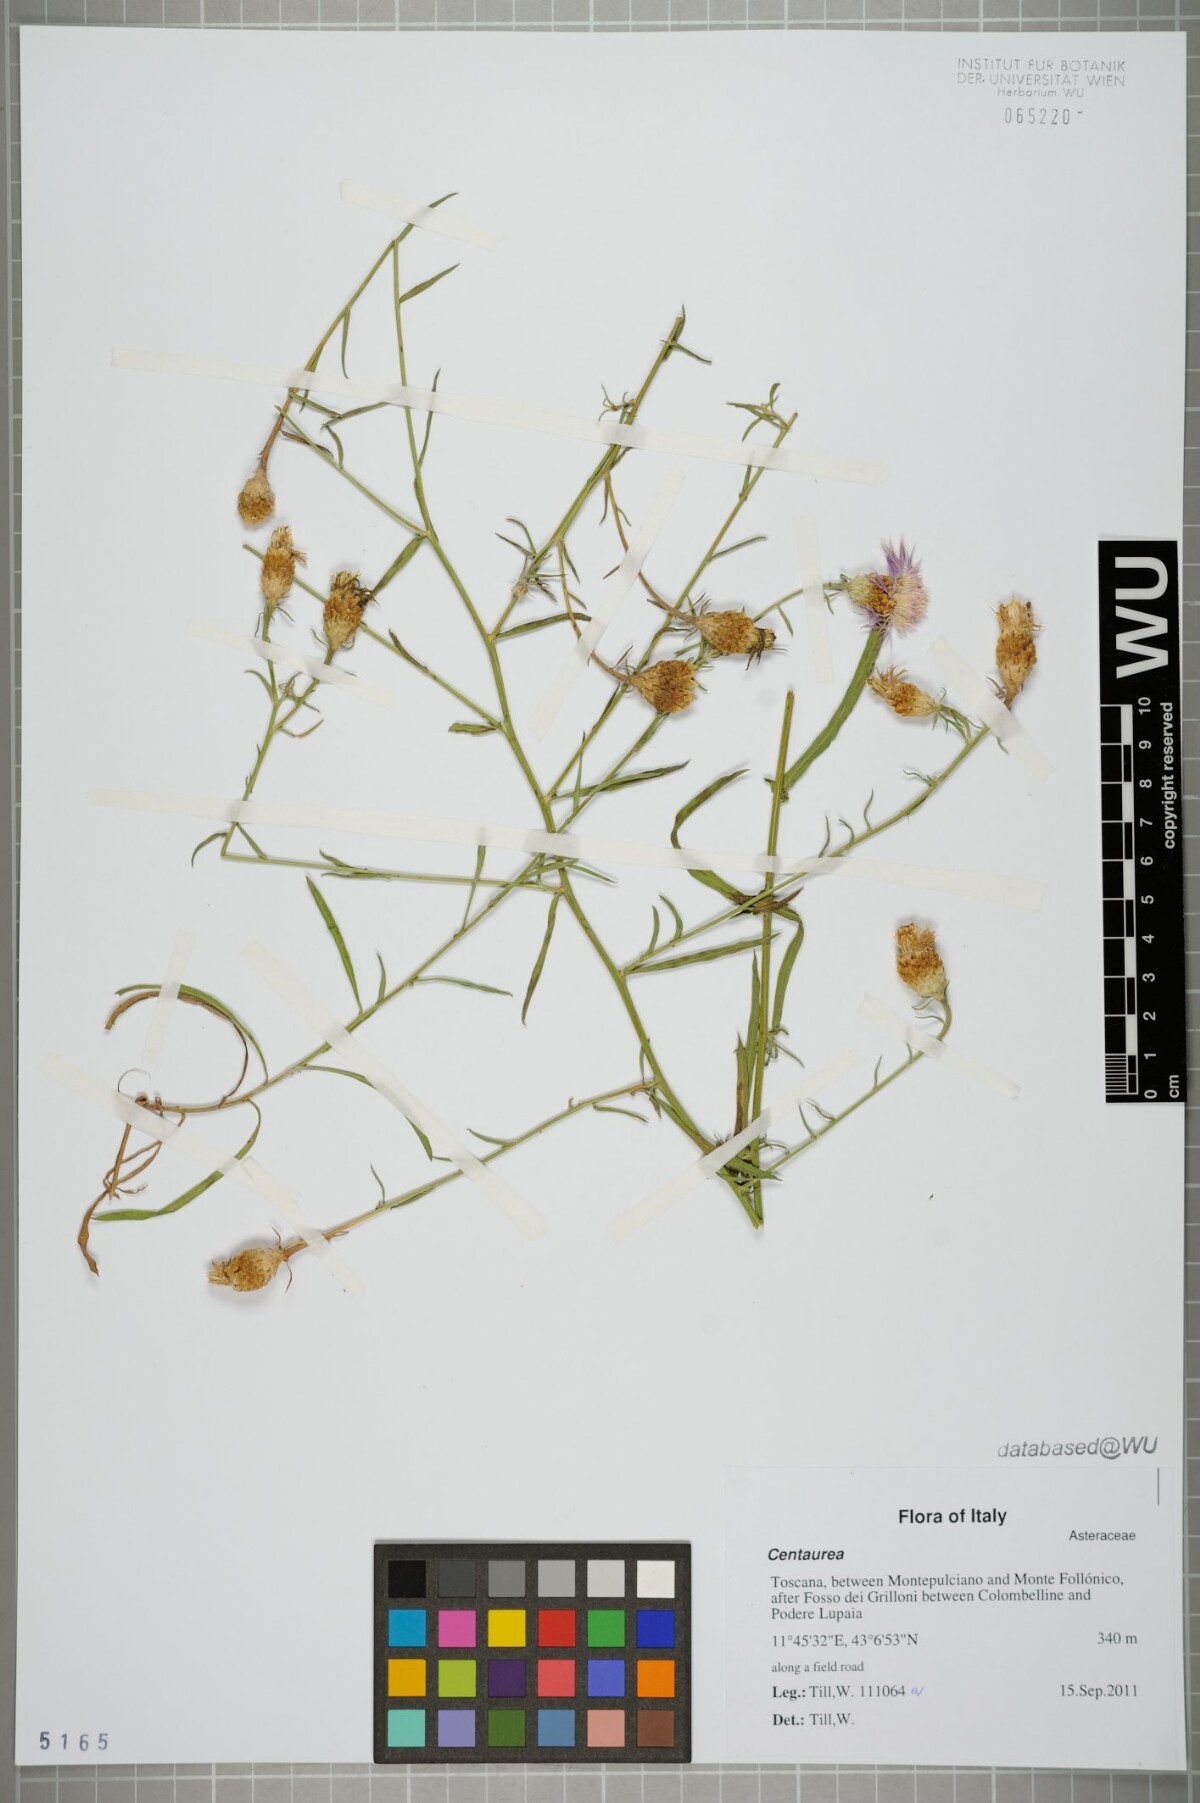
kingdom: Plantae
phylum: Tracheophyta
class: Magnoliopsida
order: Asterales
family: Asteraceae
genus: Centaurea
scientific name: Centaurea
